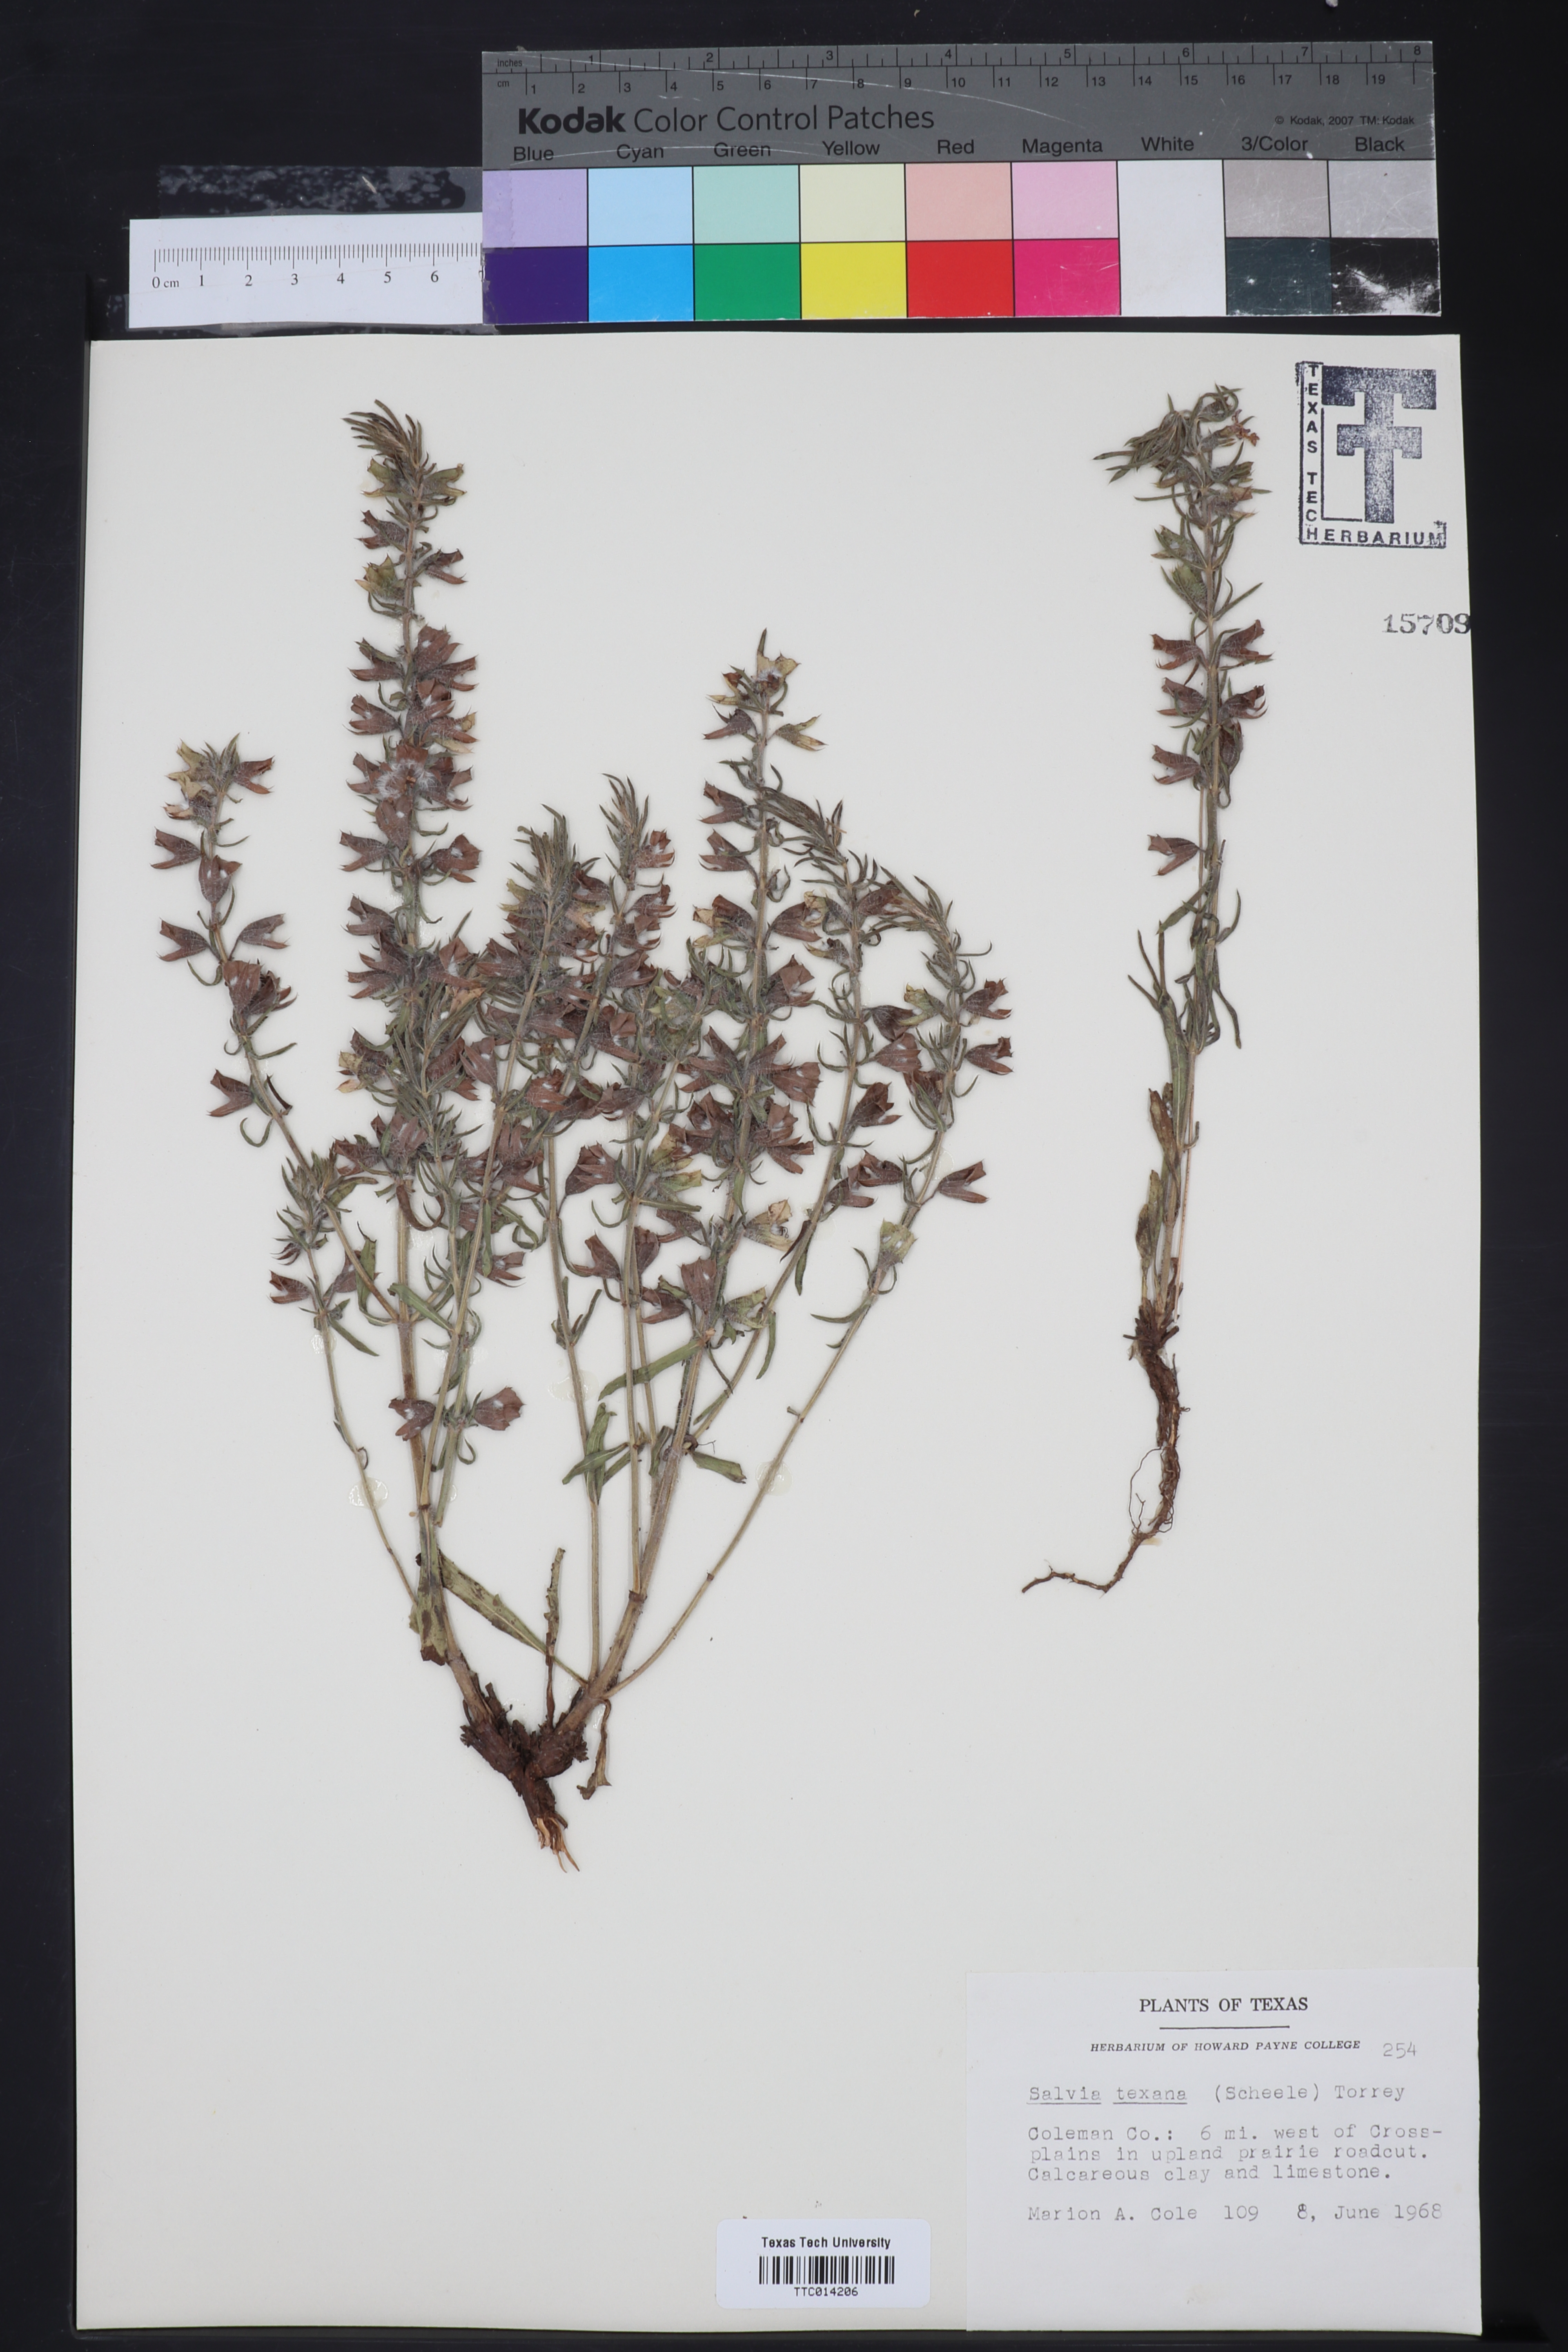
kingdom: Plantae
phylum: Tracheophyta
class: Magnoliopsida
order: Lamiales
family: Lamiaceae
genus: Salvia
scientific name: Salvia texana
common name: Texas sage
